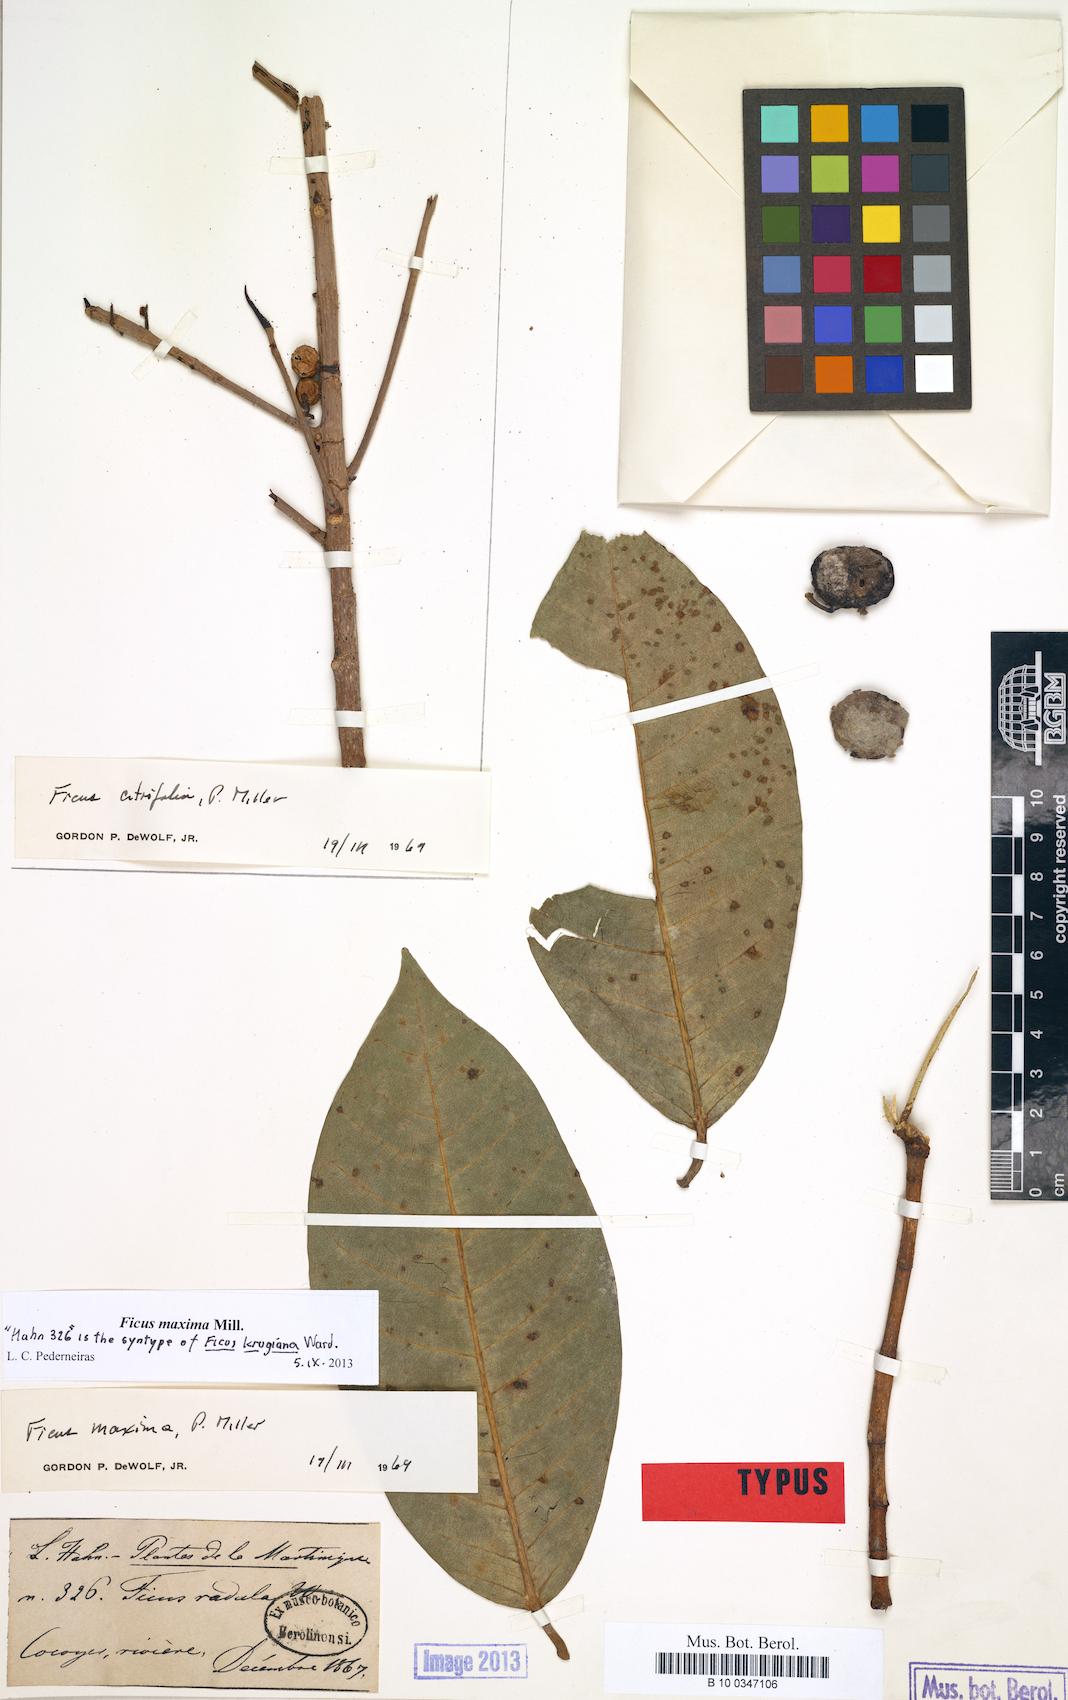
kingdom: Plantae
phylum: Tracheophyta
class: Magnoliopsida
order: Rosales
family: Moraceae
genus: Ficus
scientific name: Ficus maxima
